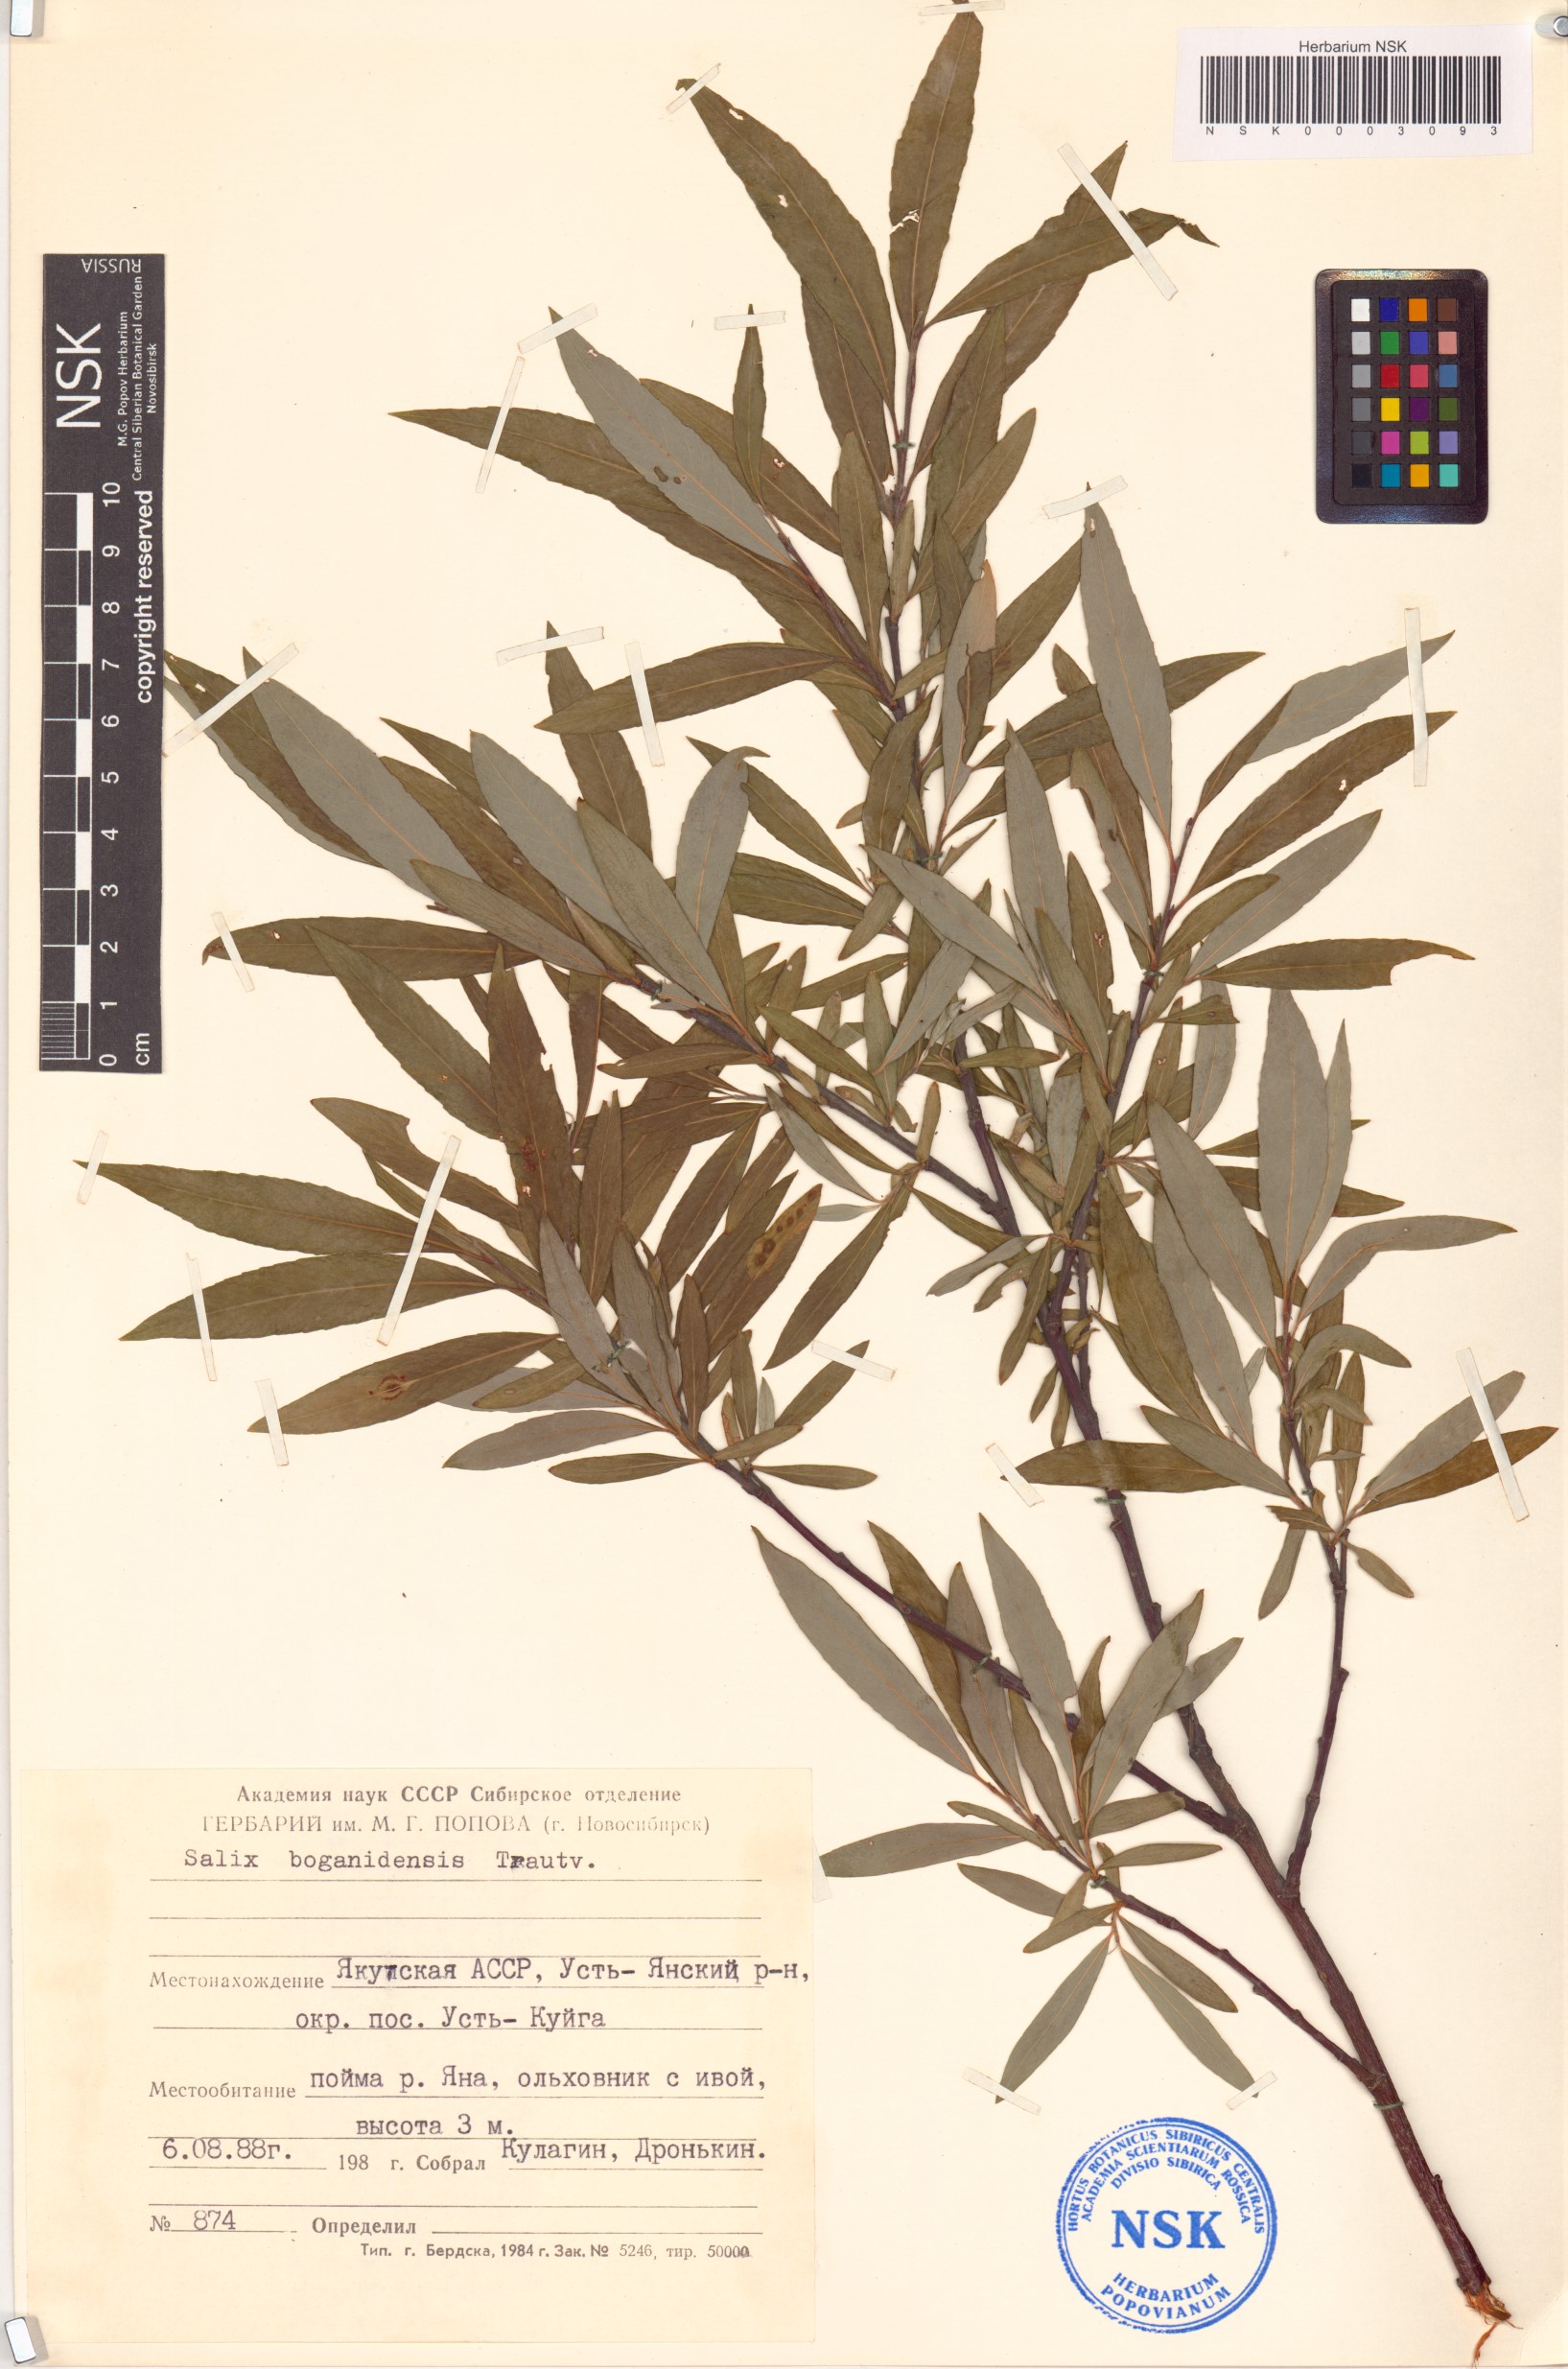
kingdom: Plantae
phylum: Tracheophyta
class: Magnoliopsida
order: Malpighiales
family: Salicaceae
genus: Salix
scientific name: Salix boganidensis
